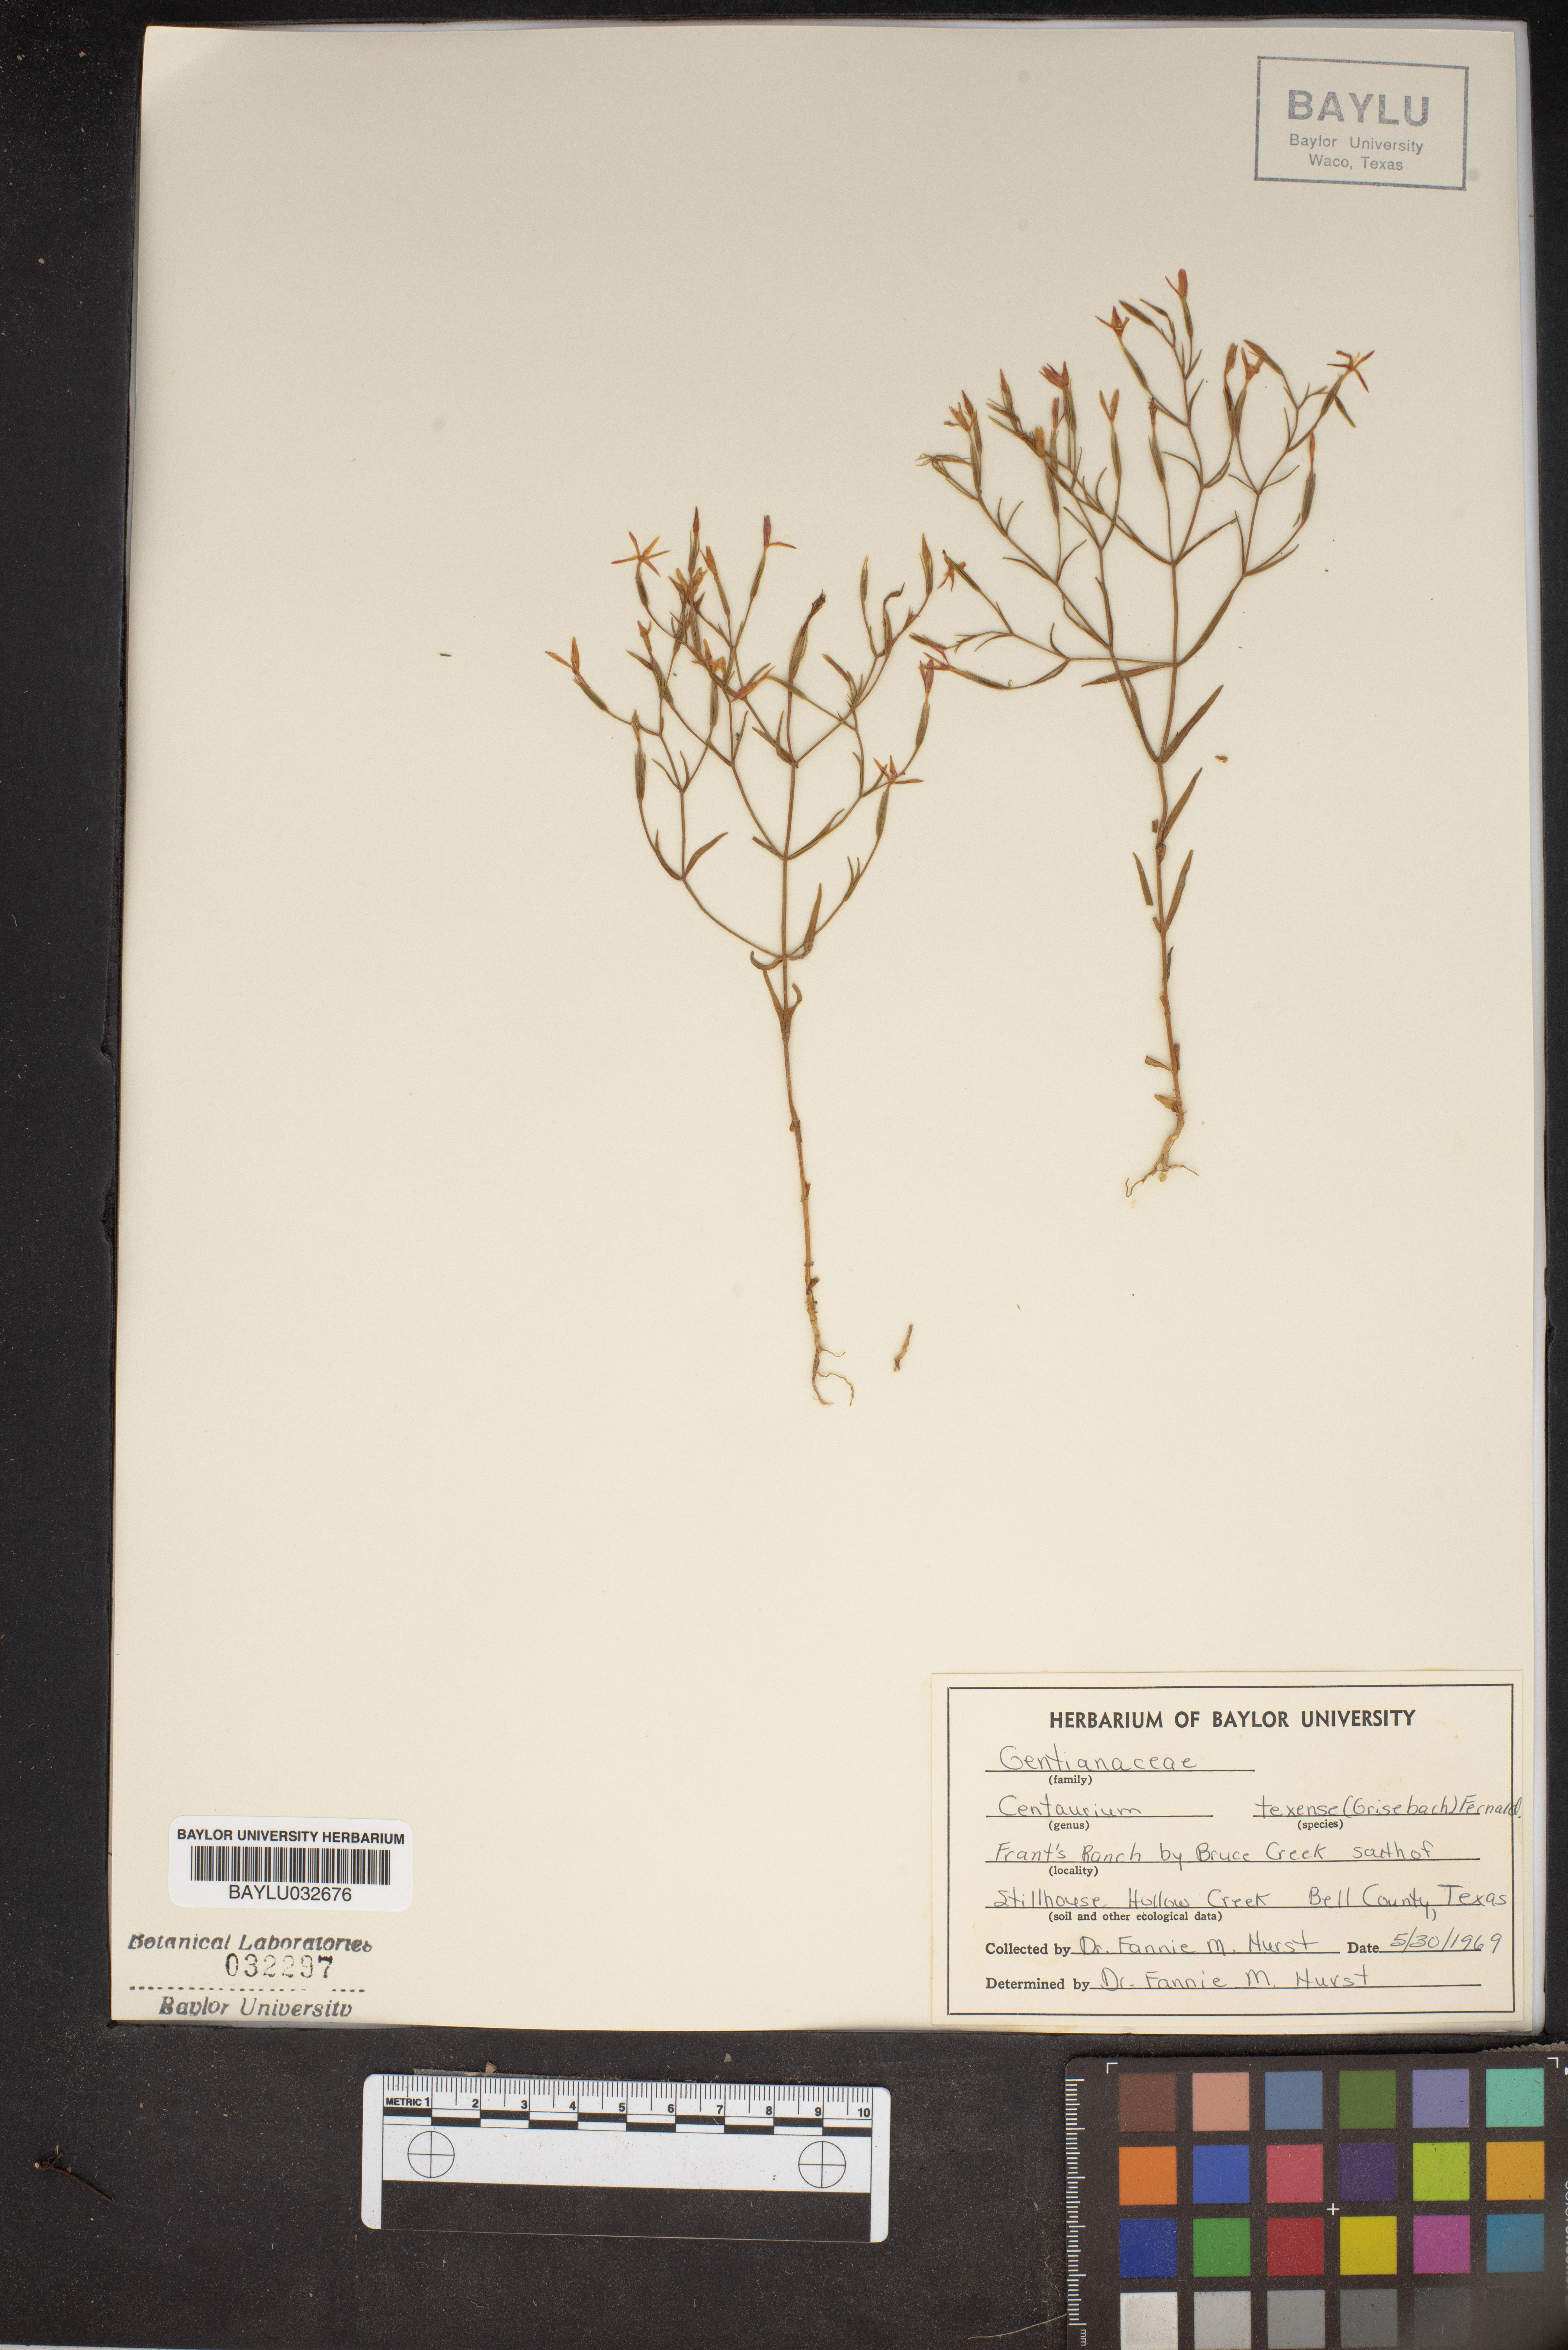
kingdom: Plantae
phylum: Tracheophyta
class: Magnoliopsida
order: Gentianales
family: Gentianaceae
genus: Zeltnera
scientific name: Zeltnera texensis
